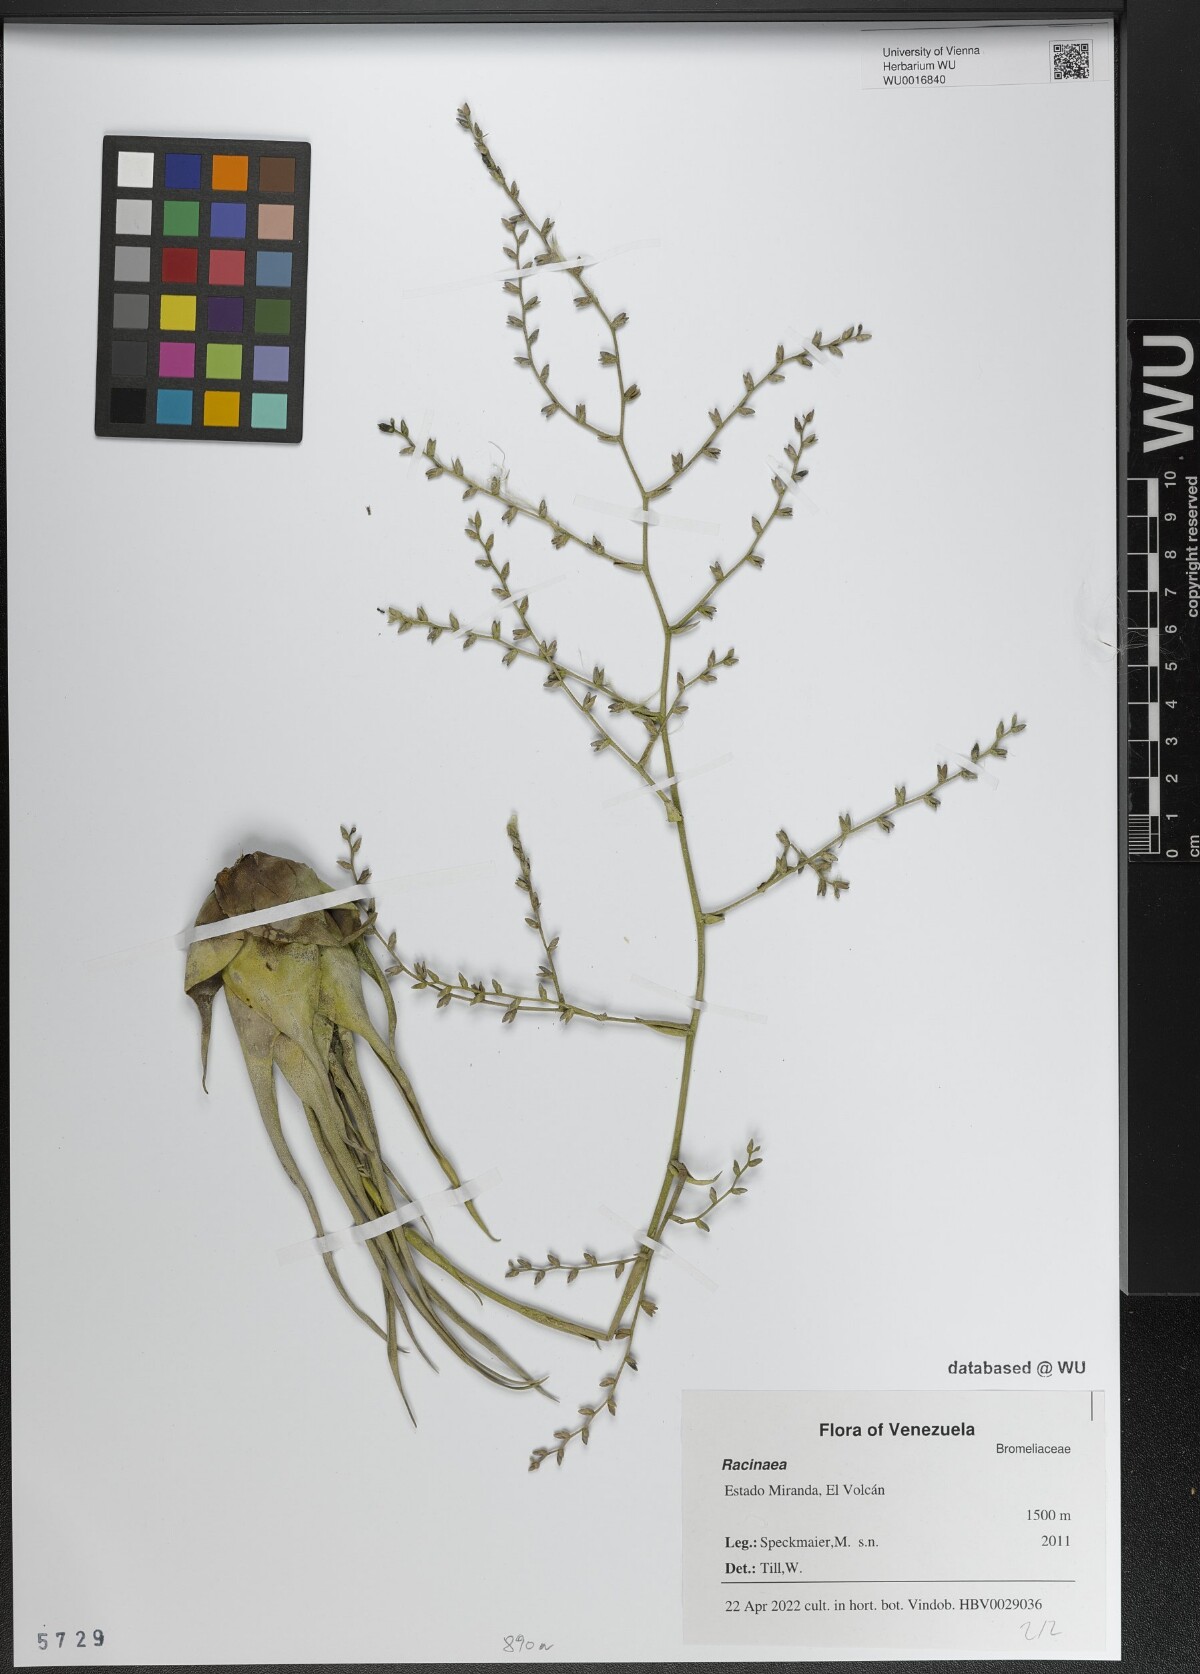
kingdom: Plantae
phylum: Tracheophyta
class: Liliopsida
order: Poales
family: Bromeliaceae
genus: Racinaea
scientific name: Racinaea
